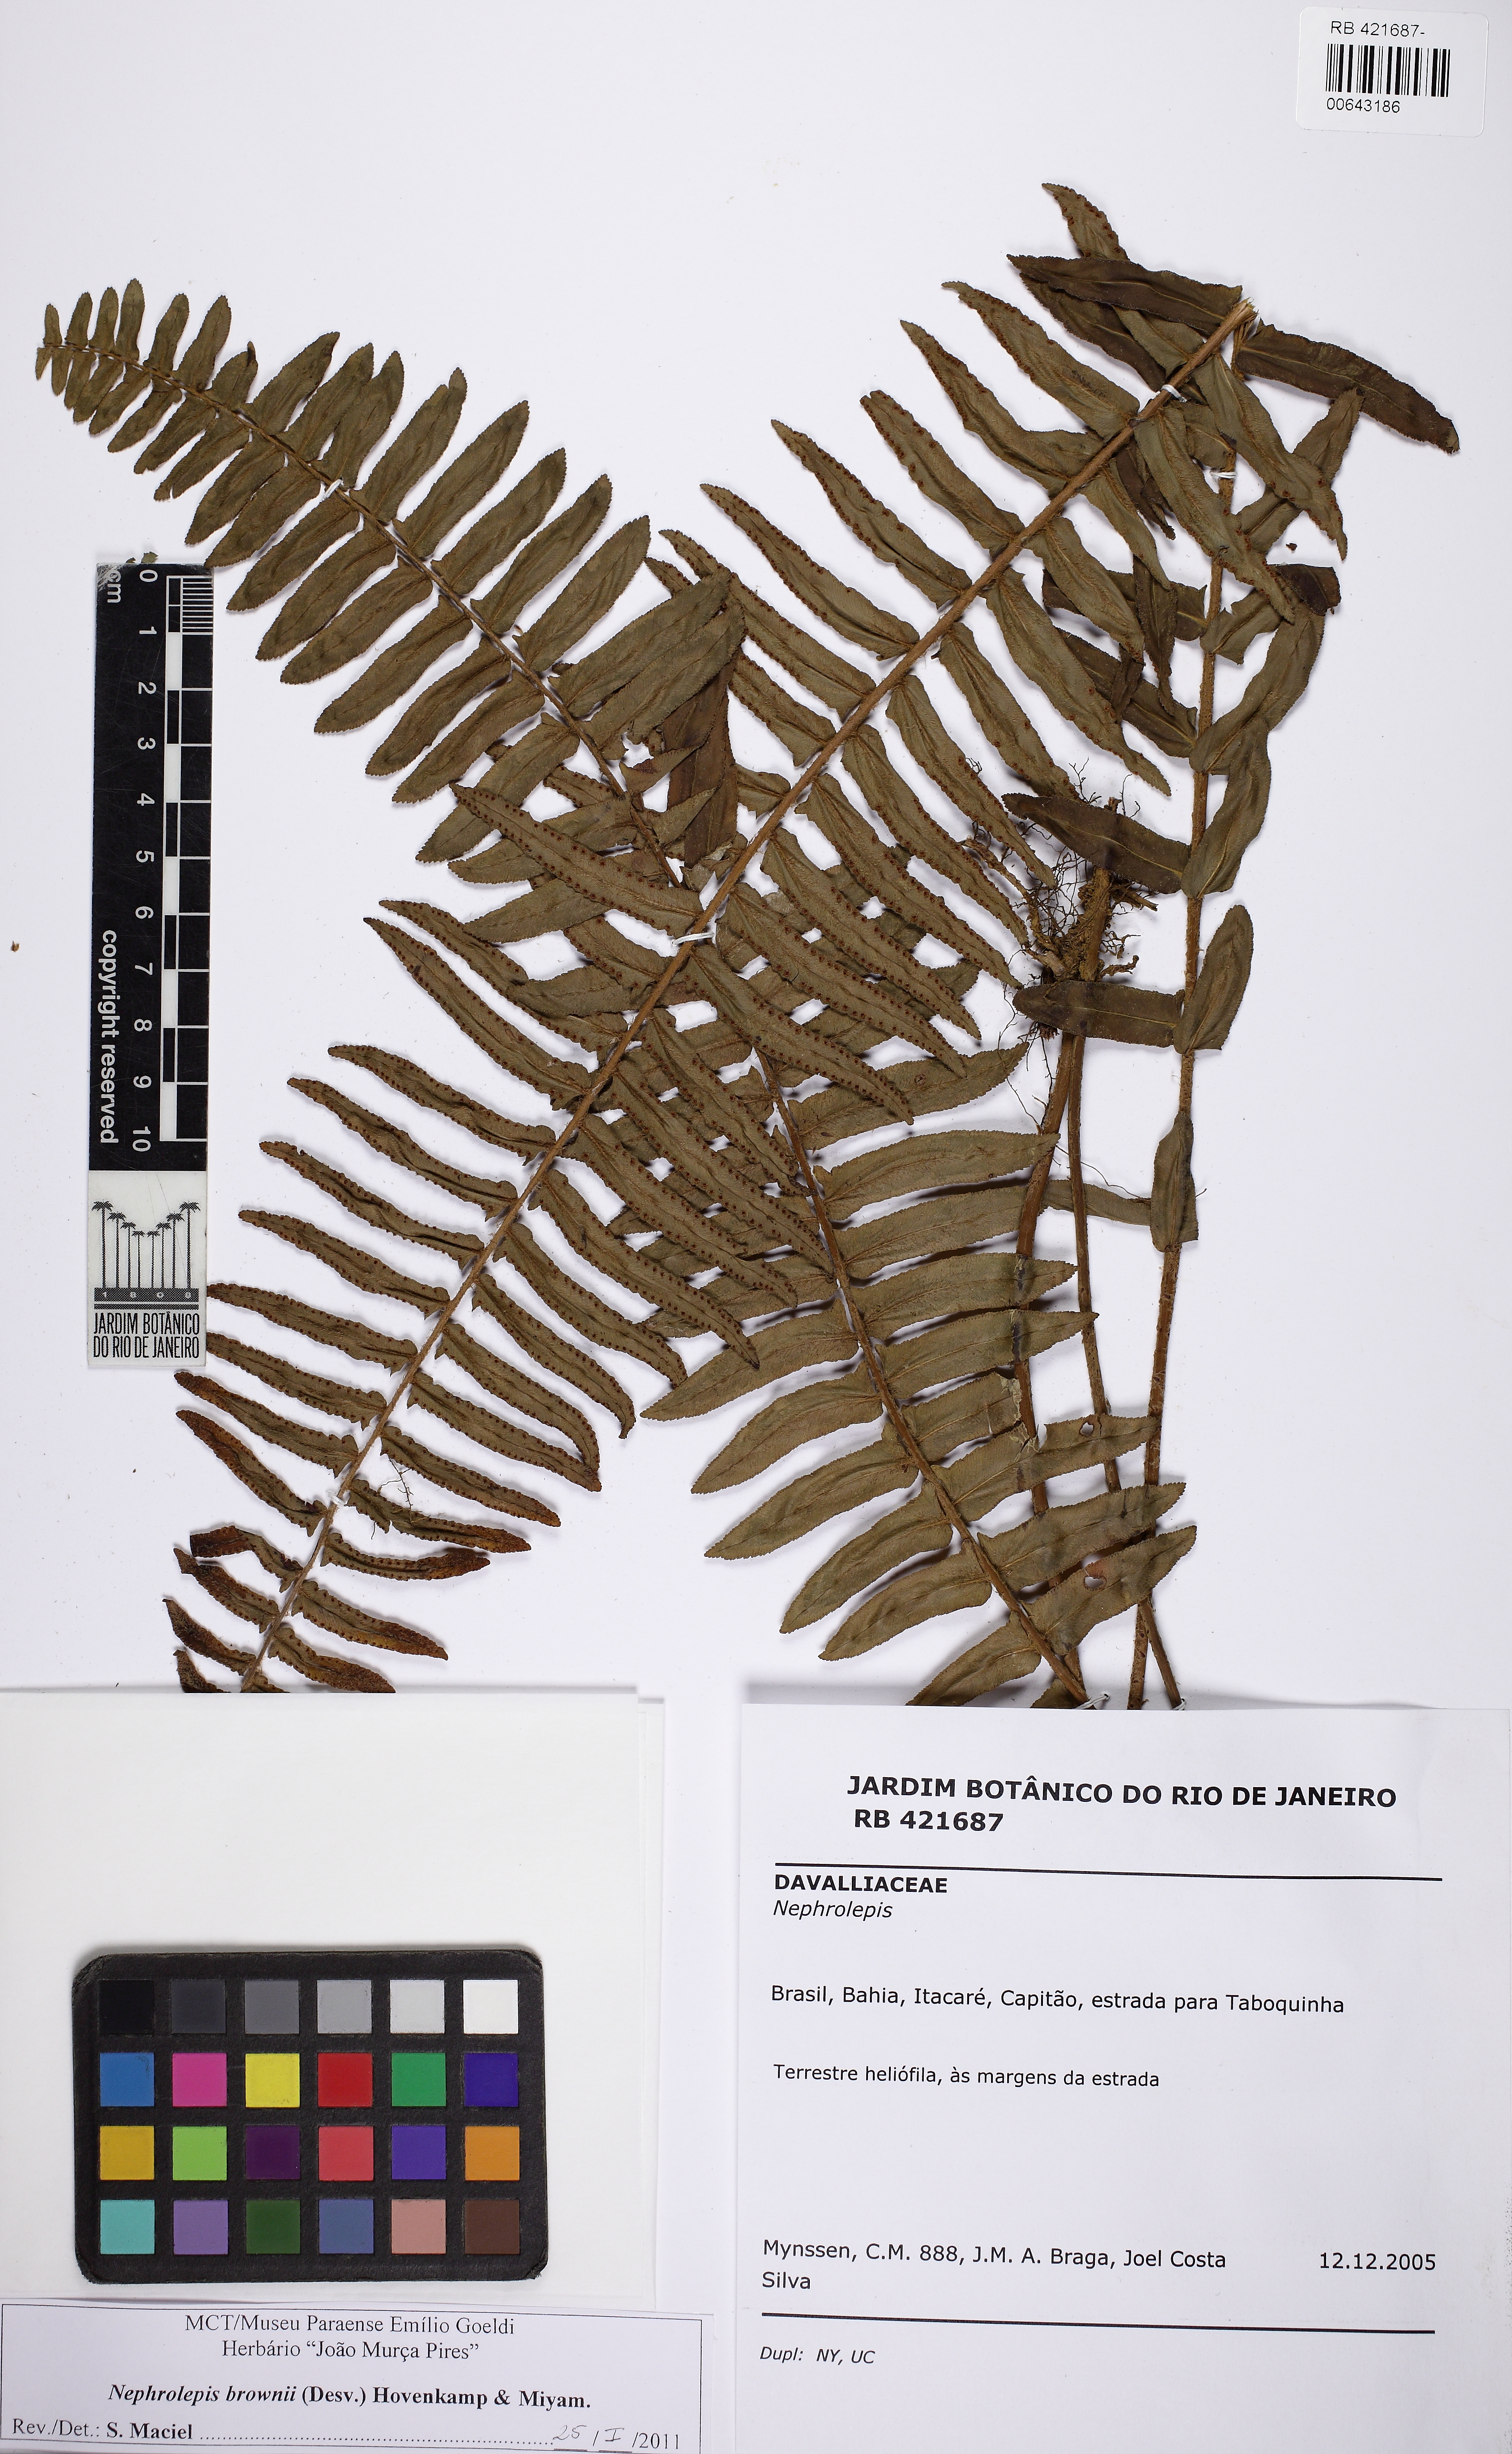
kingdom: Plantae
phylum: Tracheophyta
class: Polypodiopsida
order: Polypodiales
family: Nephrolepidaceae
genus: Nephrolepis
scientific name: Nephrolepis brownii
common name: Asian swordfern
